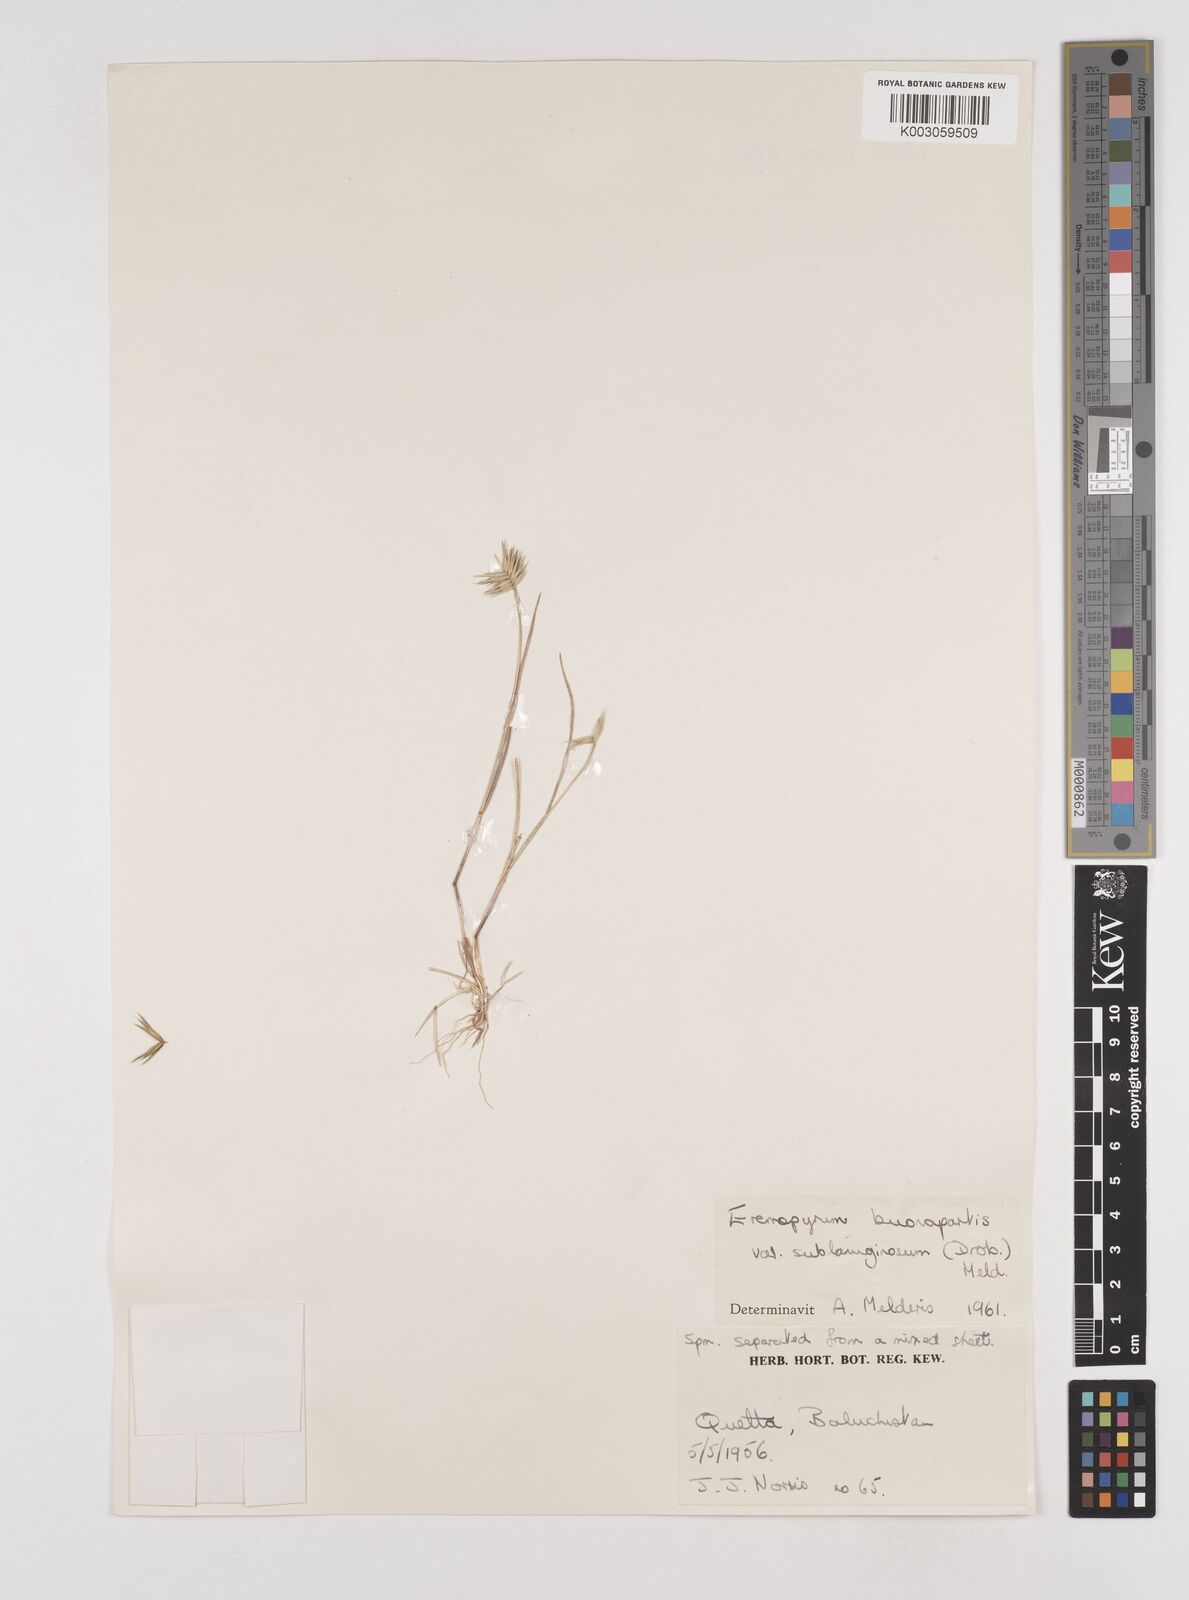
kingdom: Plantae
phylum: Tracheophyta
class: Liliopsida
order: Poales
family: Poaceae
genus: Eremopyrum
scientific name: Eremopyrum bonaepartis
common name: Tapertip false wheatgrass
